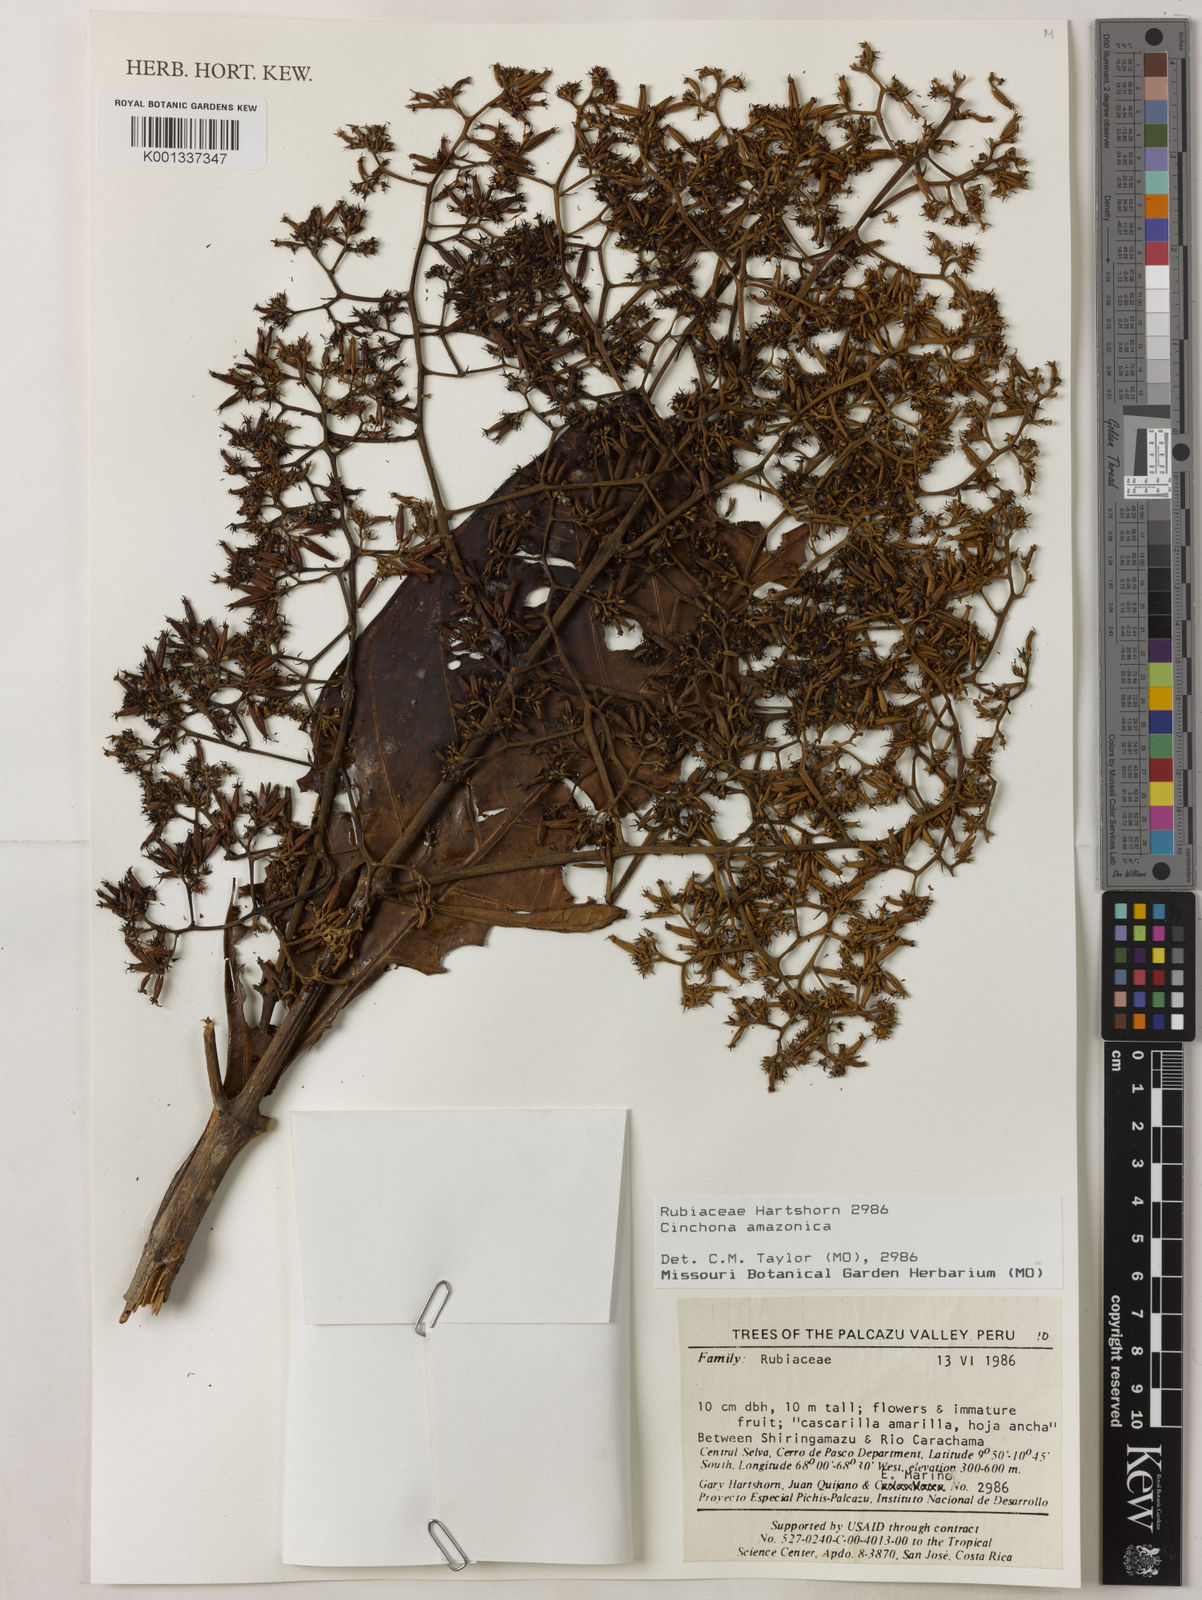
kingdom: Plantae
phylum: Tracheophyta
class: Magnoliopsida
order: Gentianales
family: Rubiaceae
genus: Cinchonopsis
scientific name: Cinchonopsis amazonica
